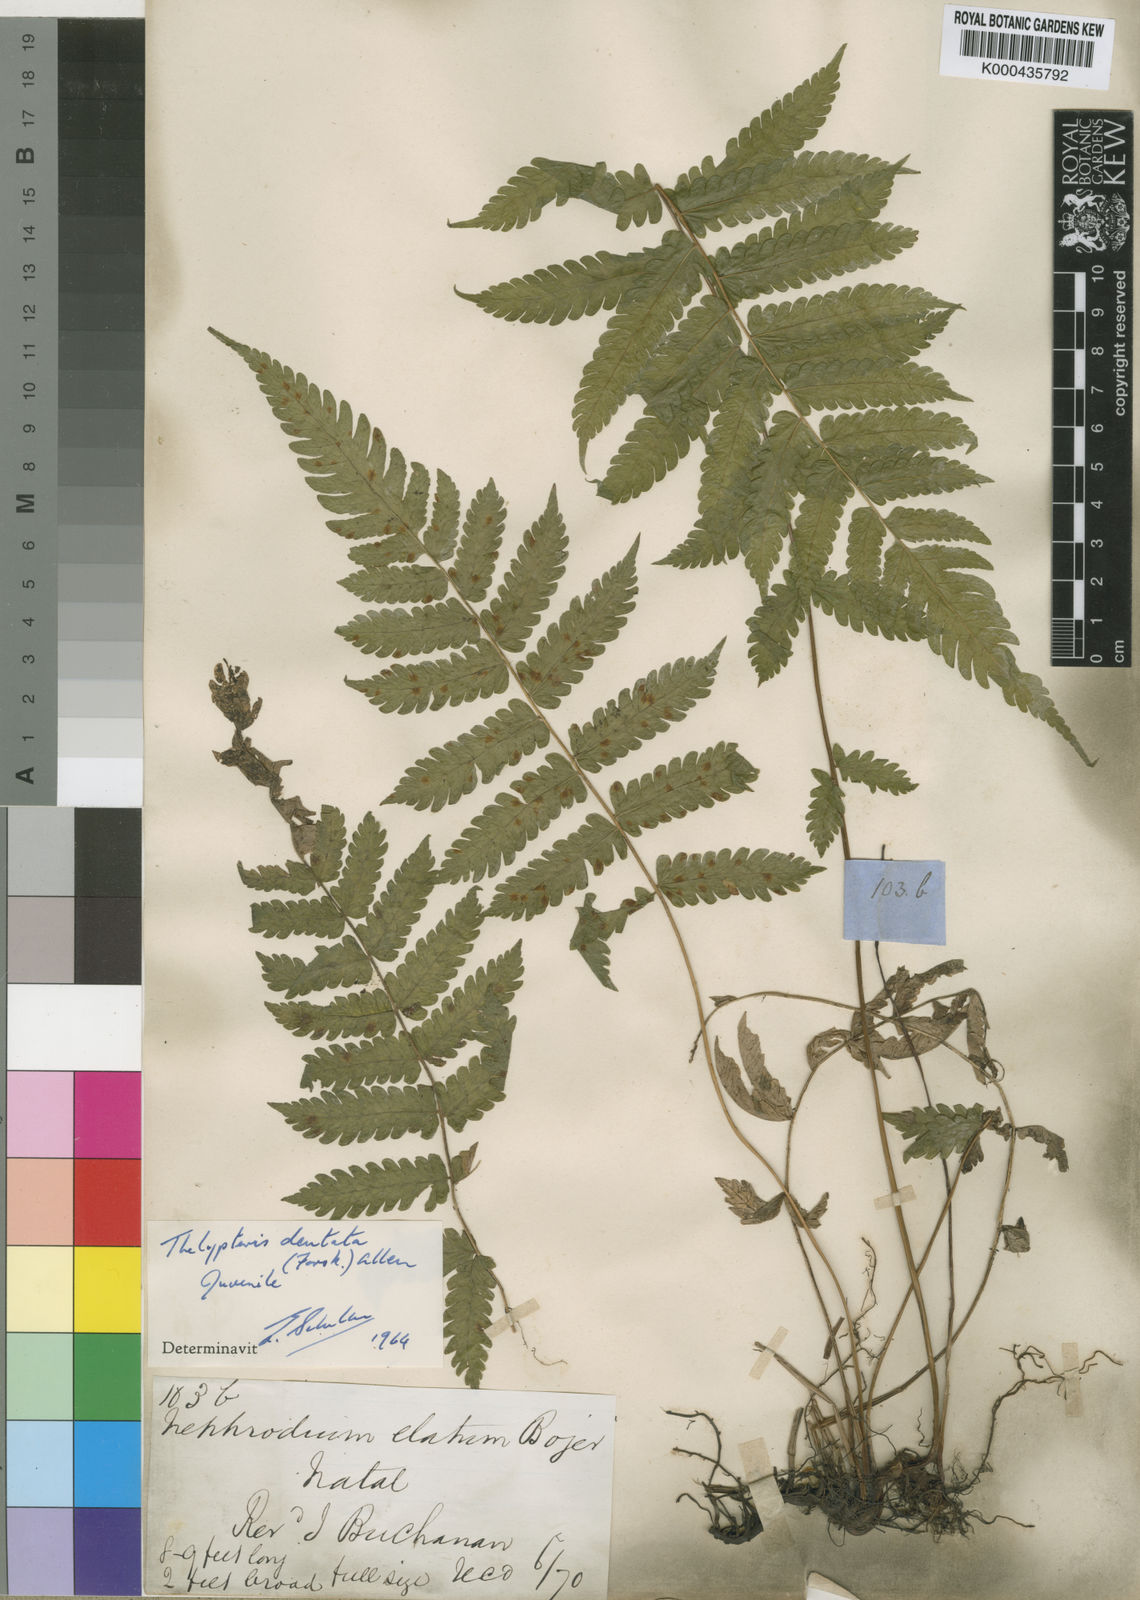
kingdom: Plantae
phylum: Tracheophyta
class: Polypodiopsida
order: Polypodiales
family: Thelypteridaceae
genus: Christella
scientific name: Christella altissima
